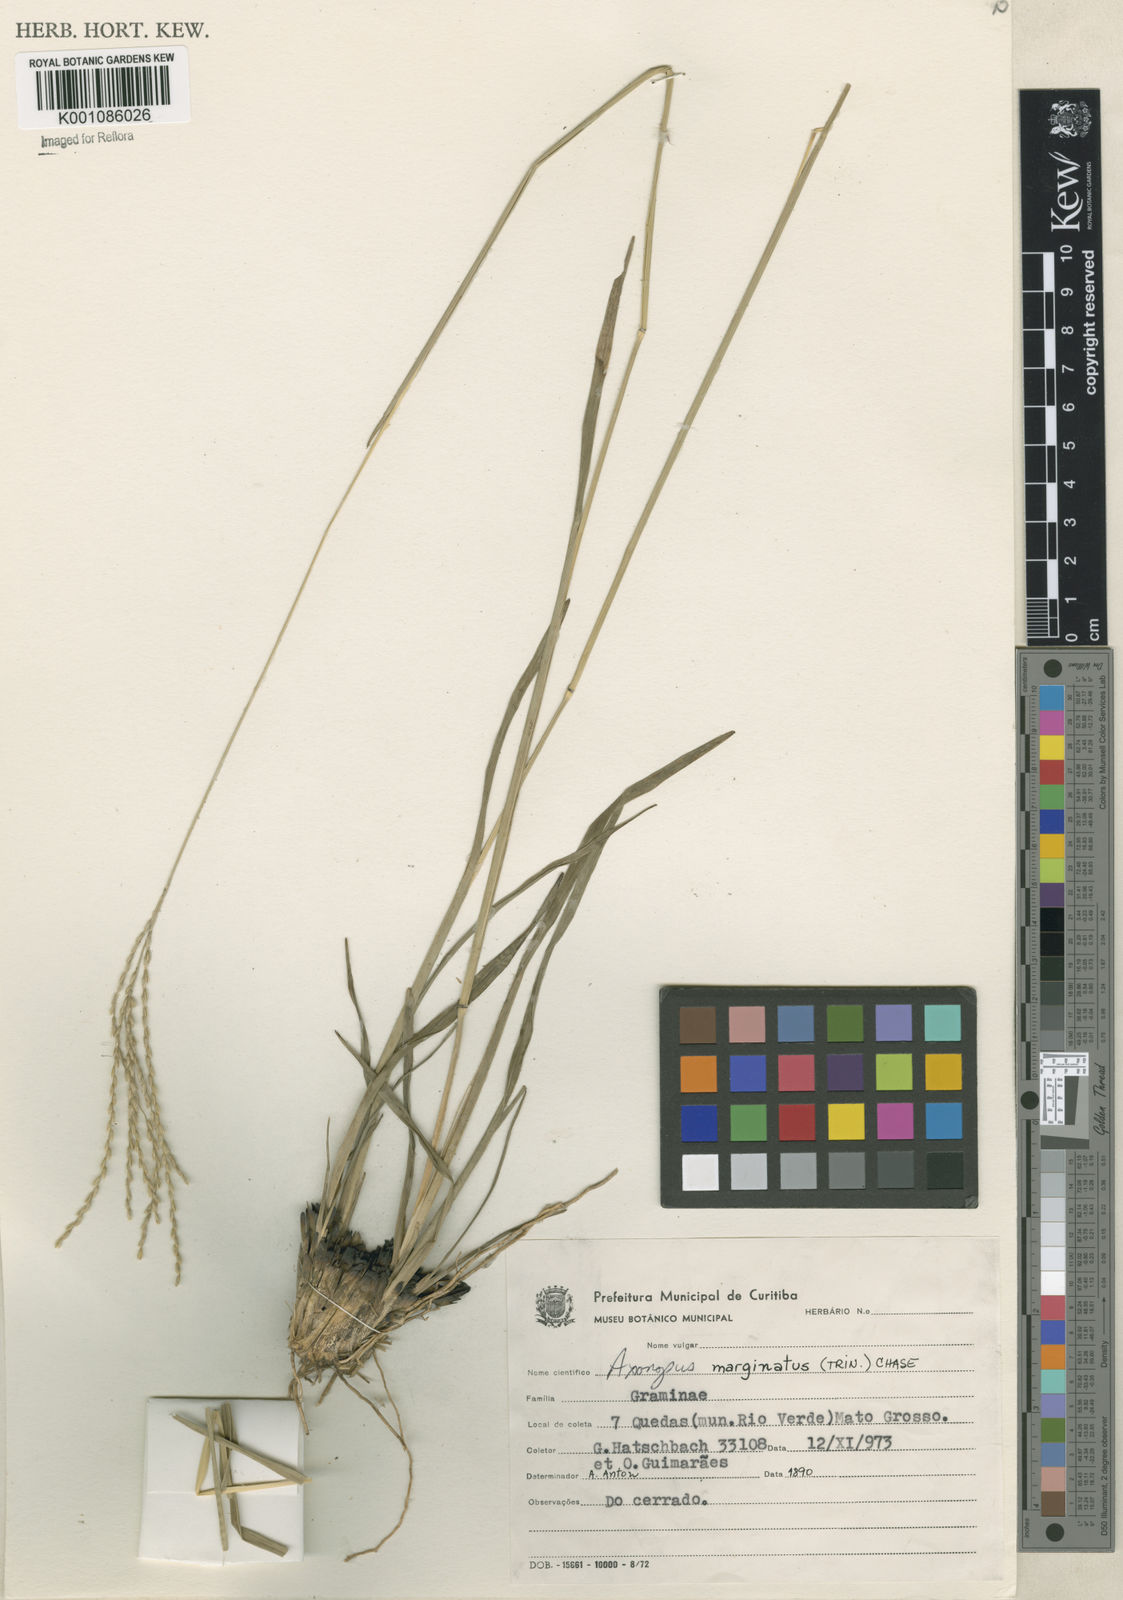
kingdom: Plantae
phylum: Tracheophyta
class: Liliopsida
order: Poales
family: Poaceae
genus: Axonopus
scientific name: Axonopus
